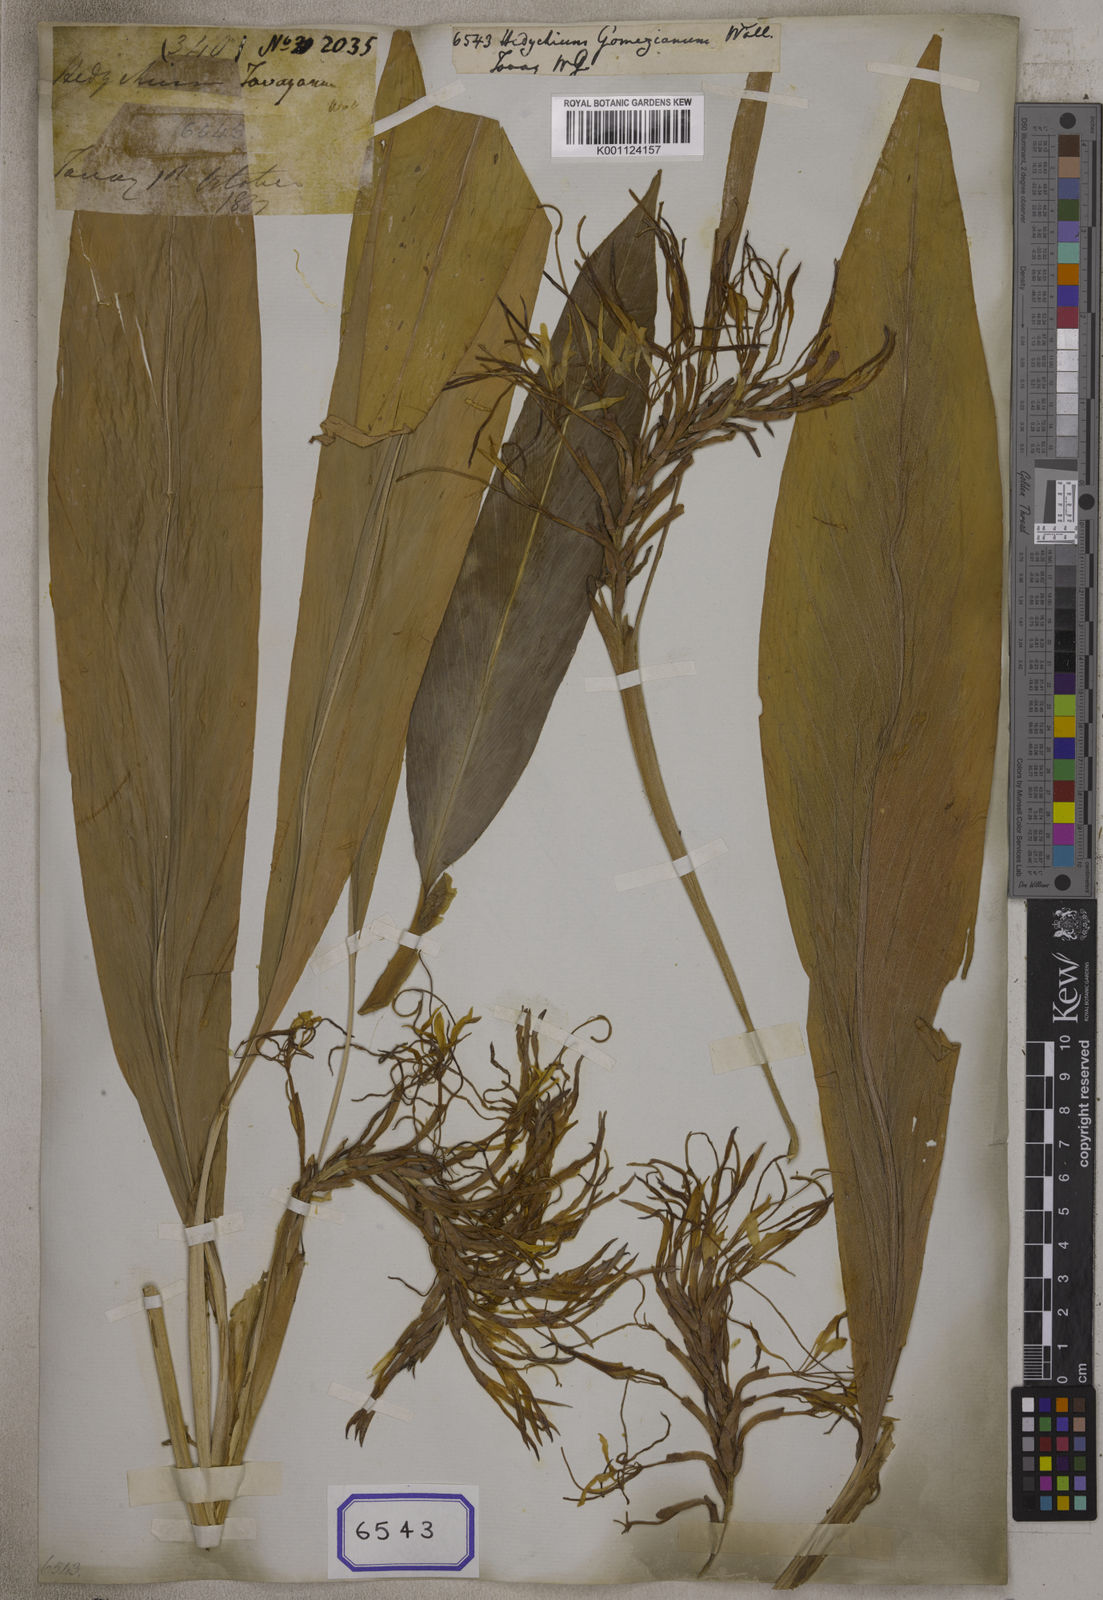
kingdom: Plantae
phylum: Tracheophyta
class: Liliopsida
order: Zingiberales
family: Zingiberaceae
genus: Hedychium
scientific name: Hedychium gomezianum
